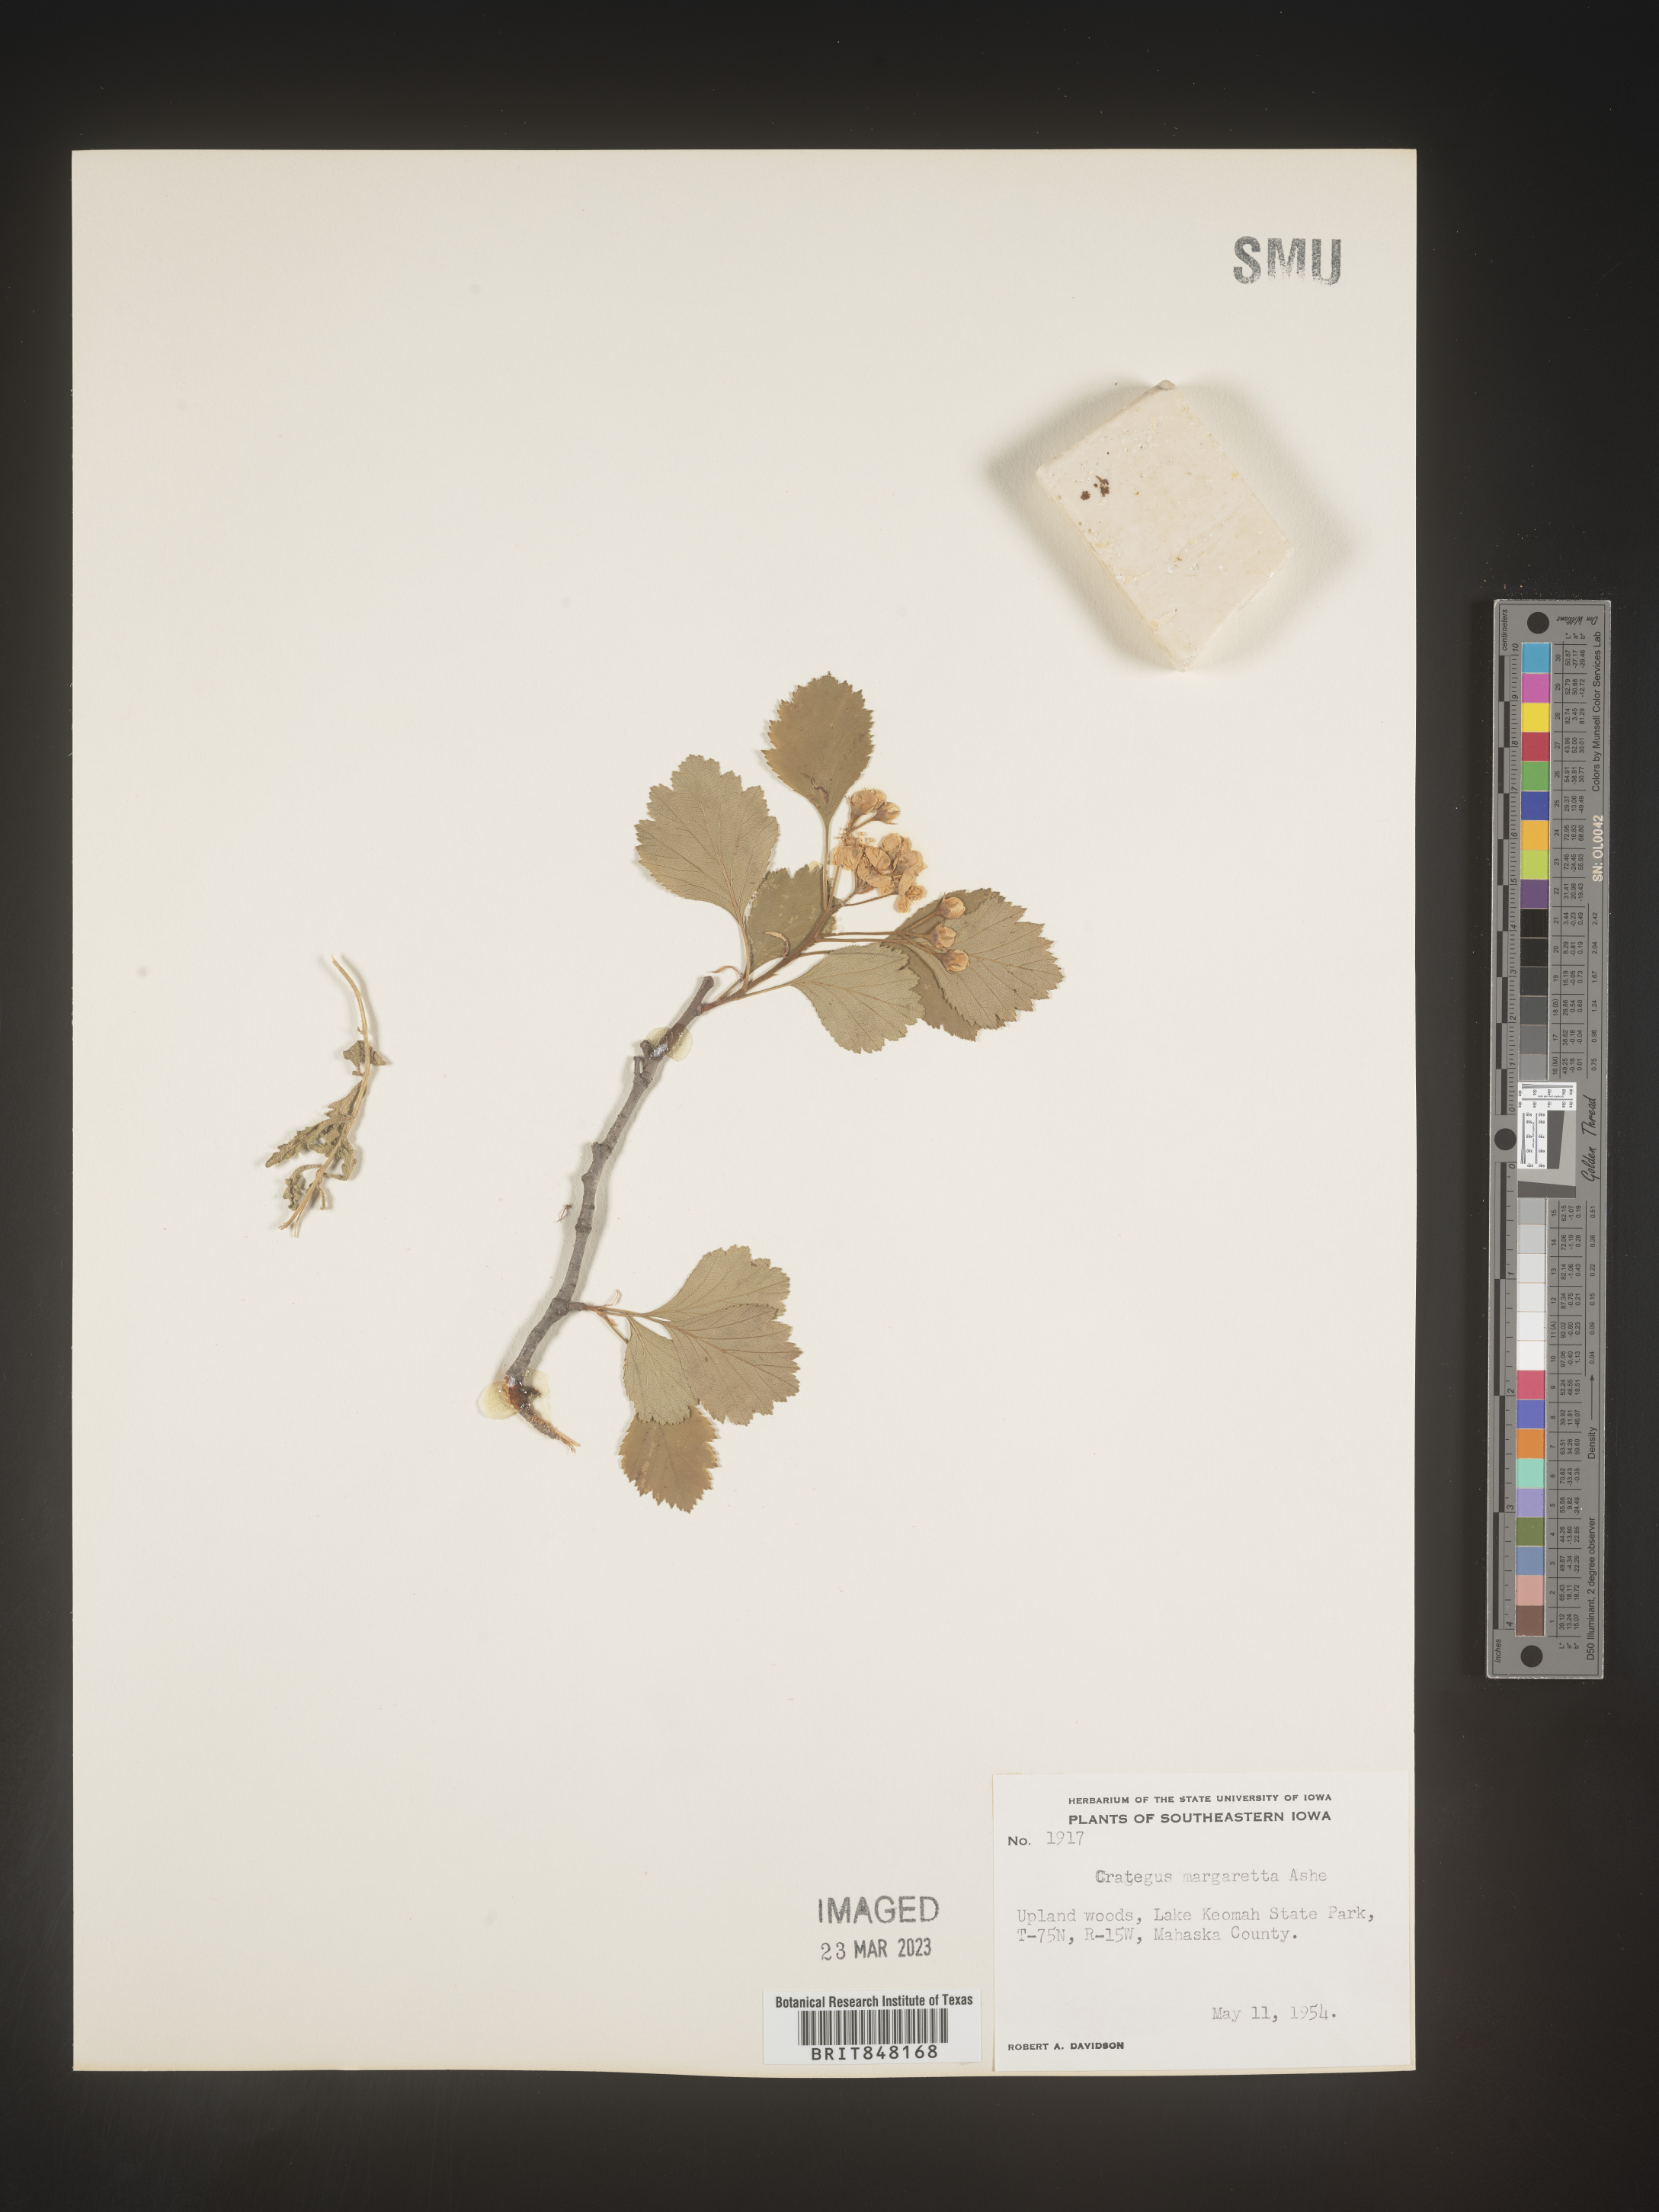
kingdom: Plantae
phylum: Tracheophyta
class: Magnoliopsida
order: Rosales
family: Rosaceae
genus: Crataegus
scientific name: Crataegus margaretta
